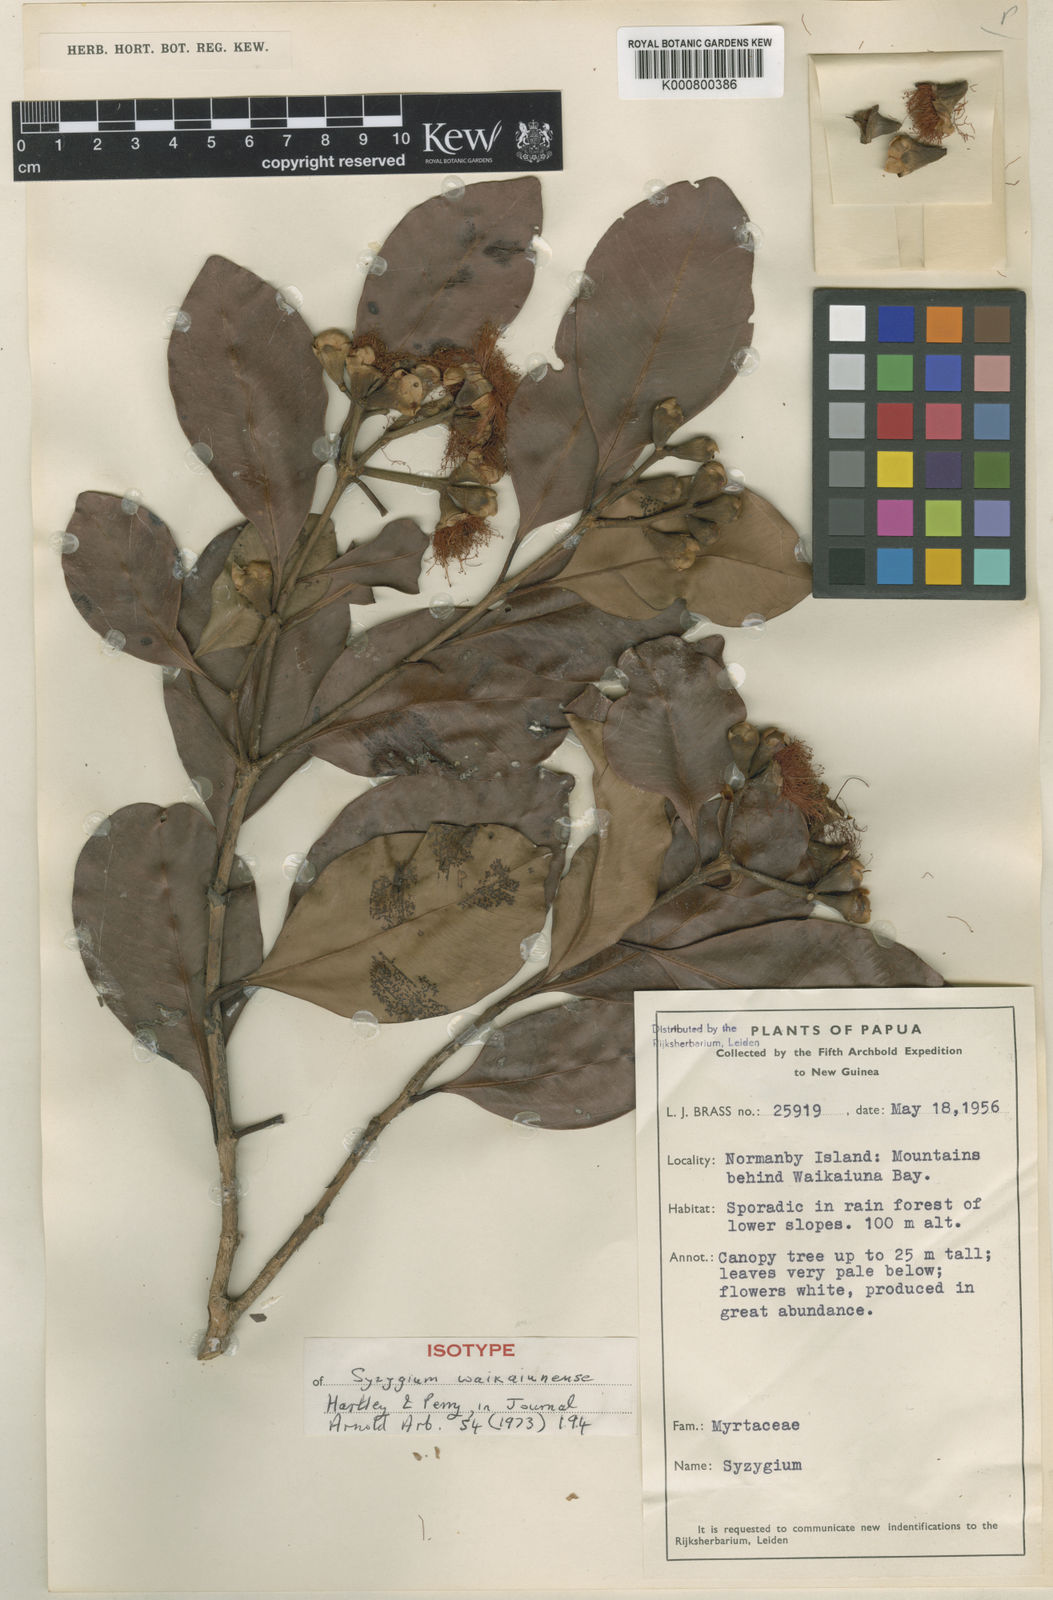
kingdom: Plantae
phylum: Tracheophyta
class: Magnoliopsida
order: Myrtales
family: Myrtaceae
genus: Syzygium
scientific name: Syzygium waikaiunense
